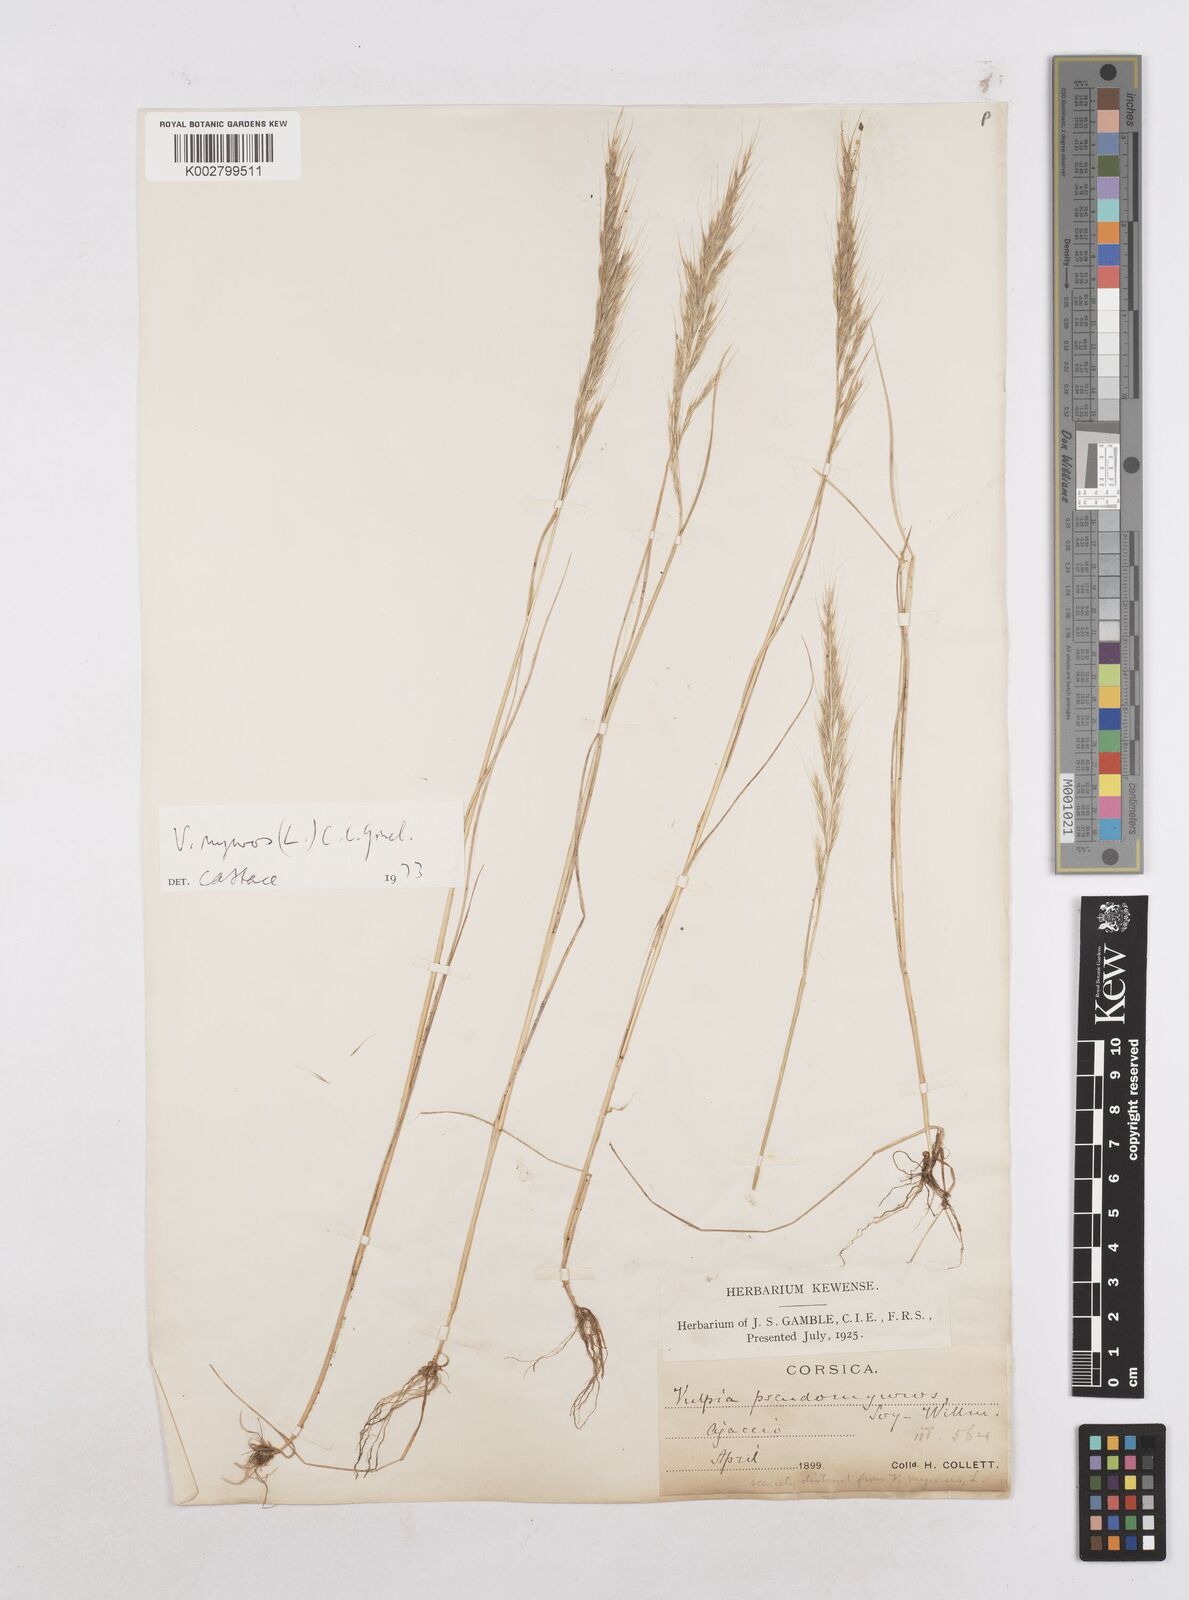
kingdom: Plantae
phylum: Tracheophyta
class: Liliopsida
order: Poales
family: Poaceae
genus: Festuca
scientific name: Festuca myuros
